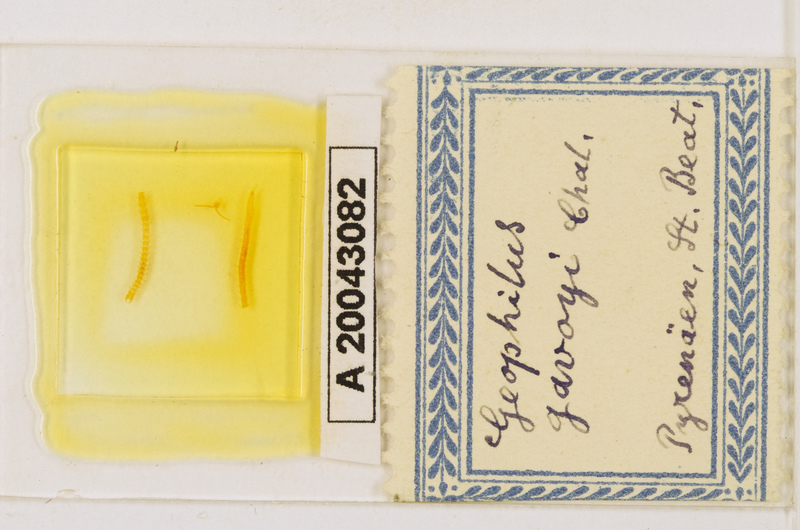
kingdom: Animalia
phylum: Arthropoda
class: Chilopoda
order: Geophilomorpha
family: Geophilidae
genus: Geophilus
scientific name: Geophilus gavoyi
